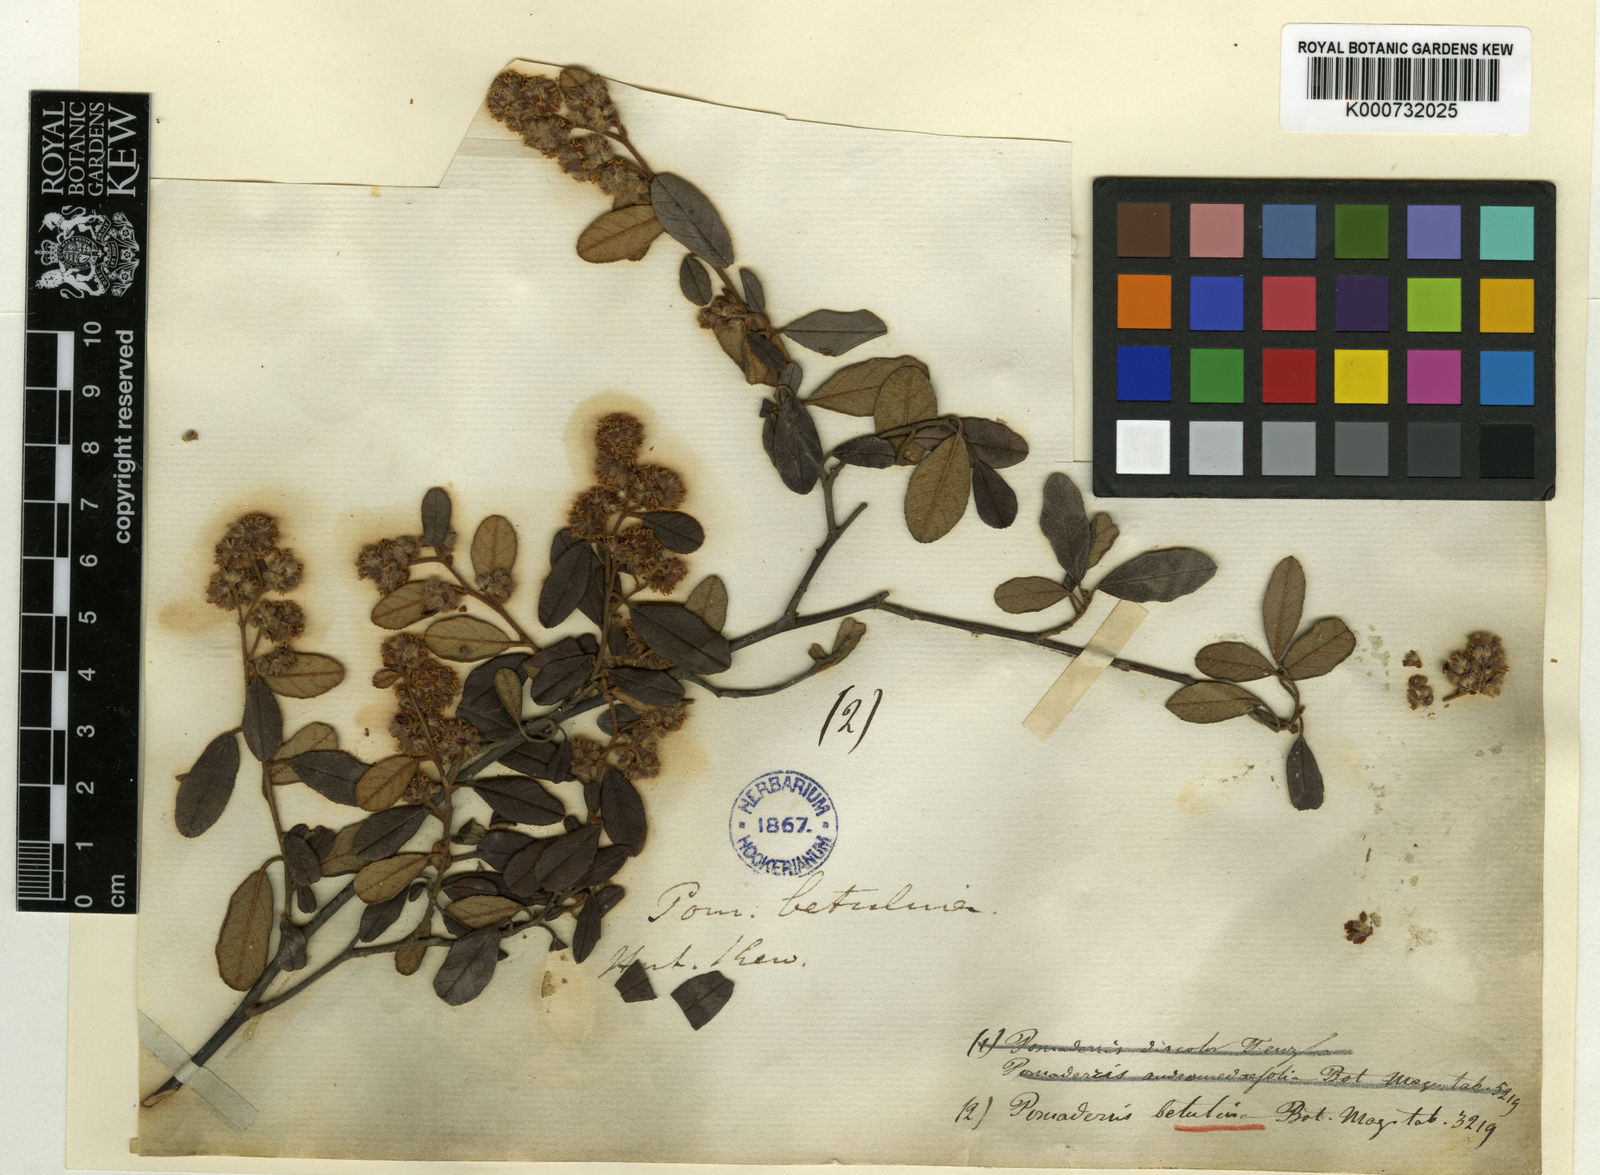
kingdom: Plantae
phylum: Tracheophyta
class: Magnoliopsida
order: Rosales
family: Rhamnaceae
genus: Pomaderris
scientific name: Pomaderris betulina
